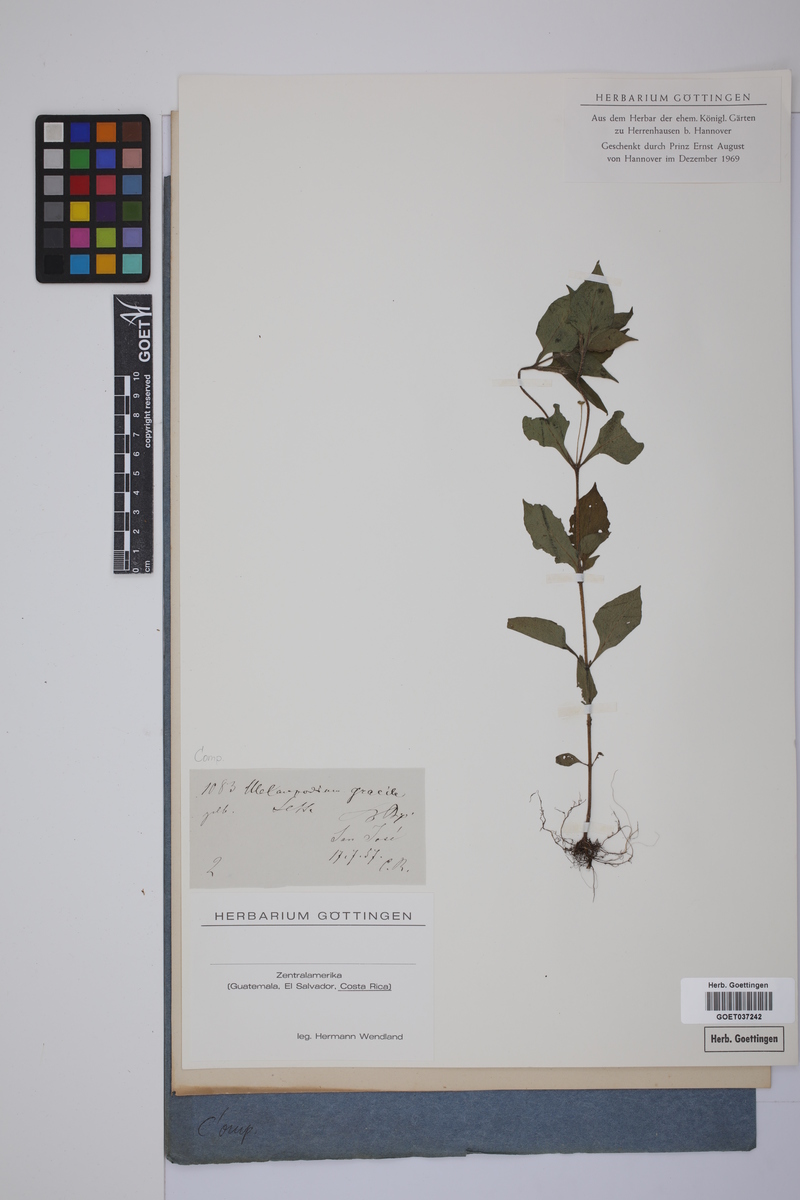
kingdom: Plantae
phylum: Tracheophyta
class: Magnoliopsida
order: Asterales
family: Asteraceae
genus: Melampodium
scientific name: Melampodium gracile
